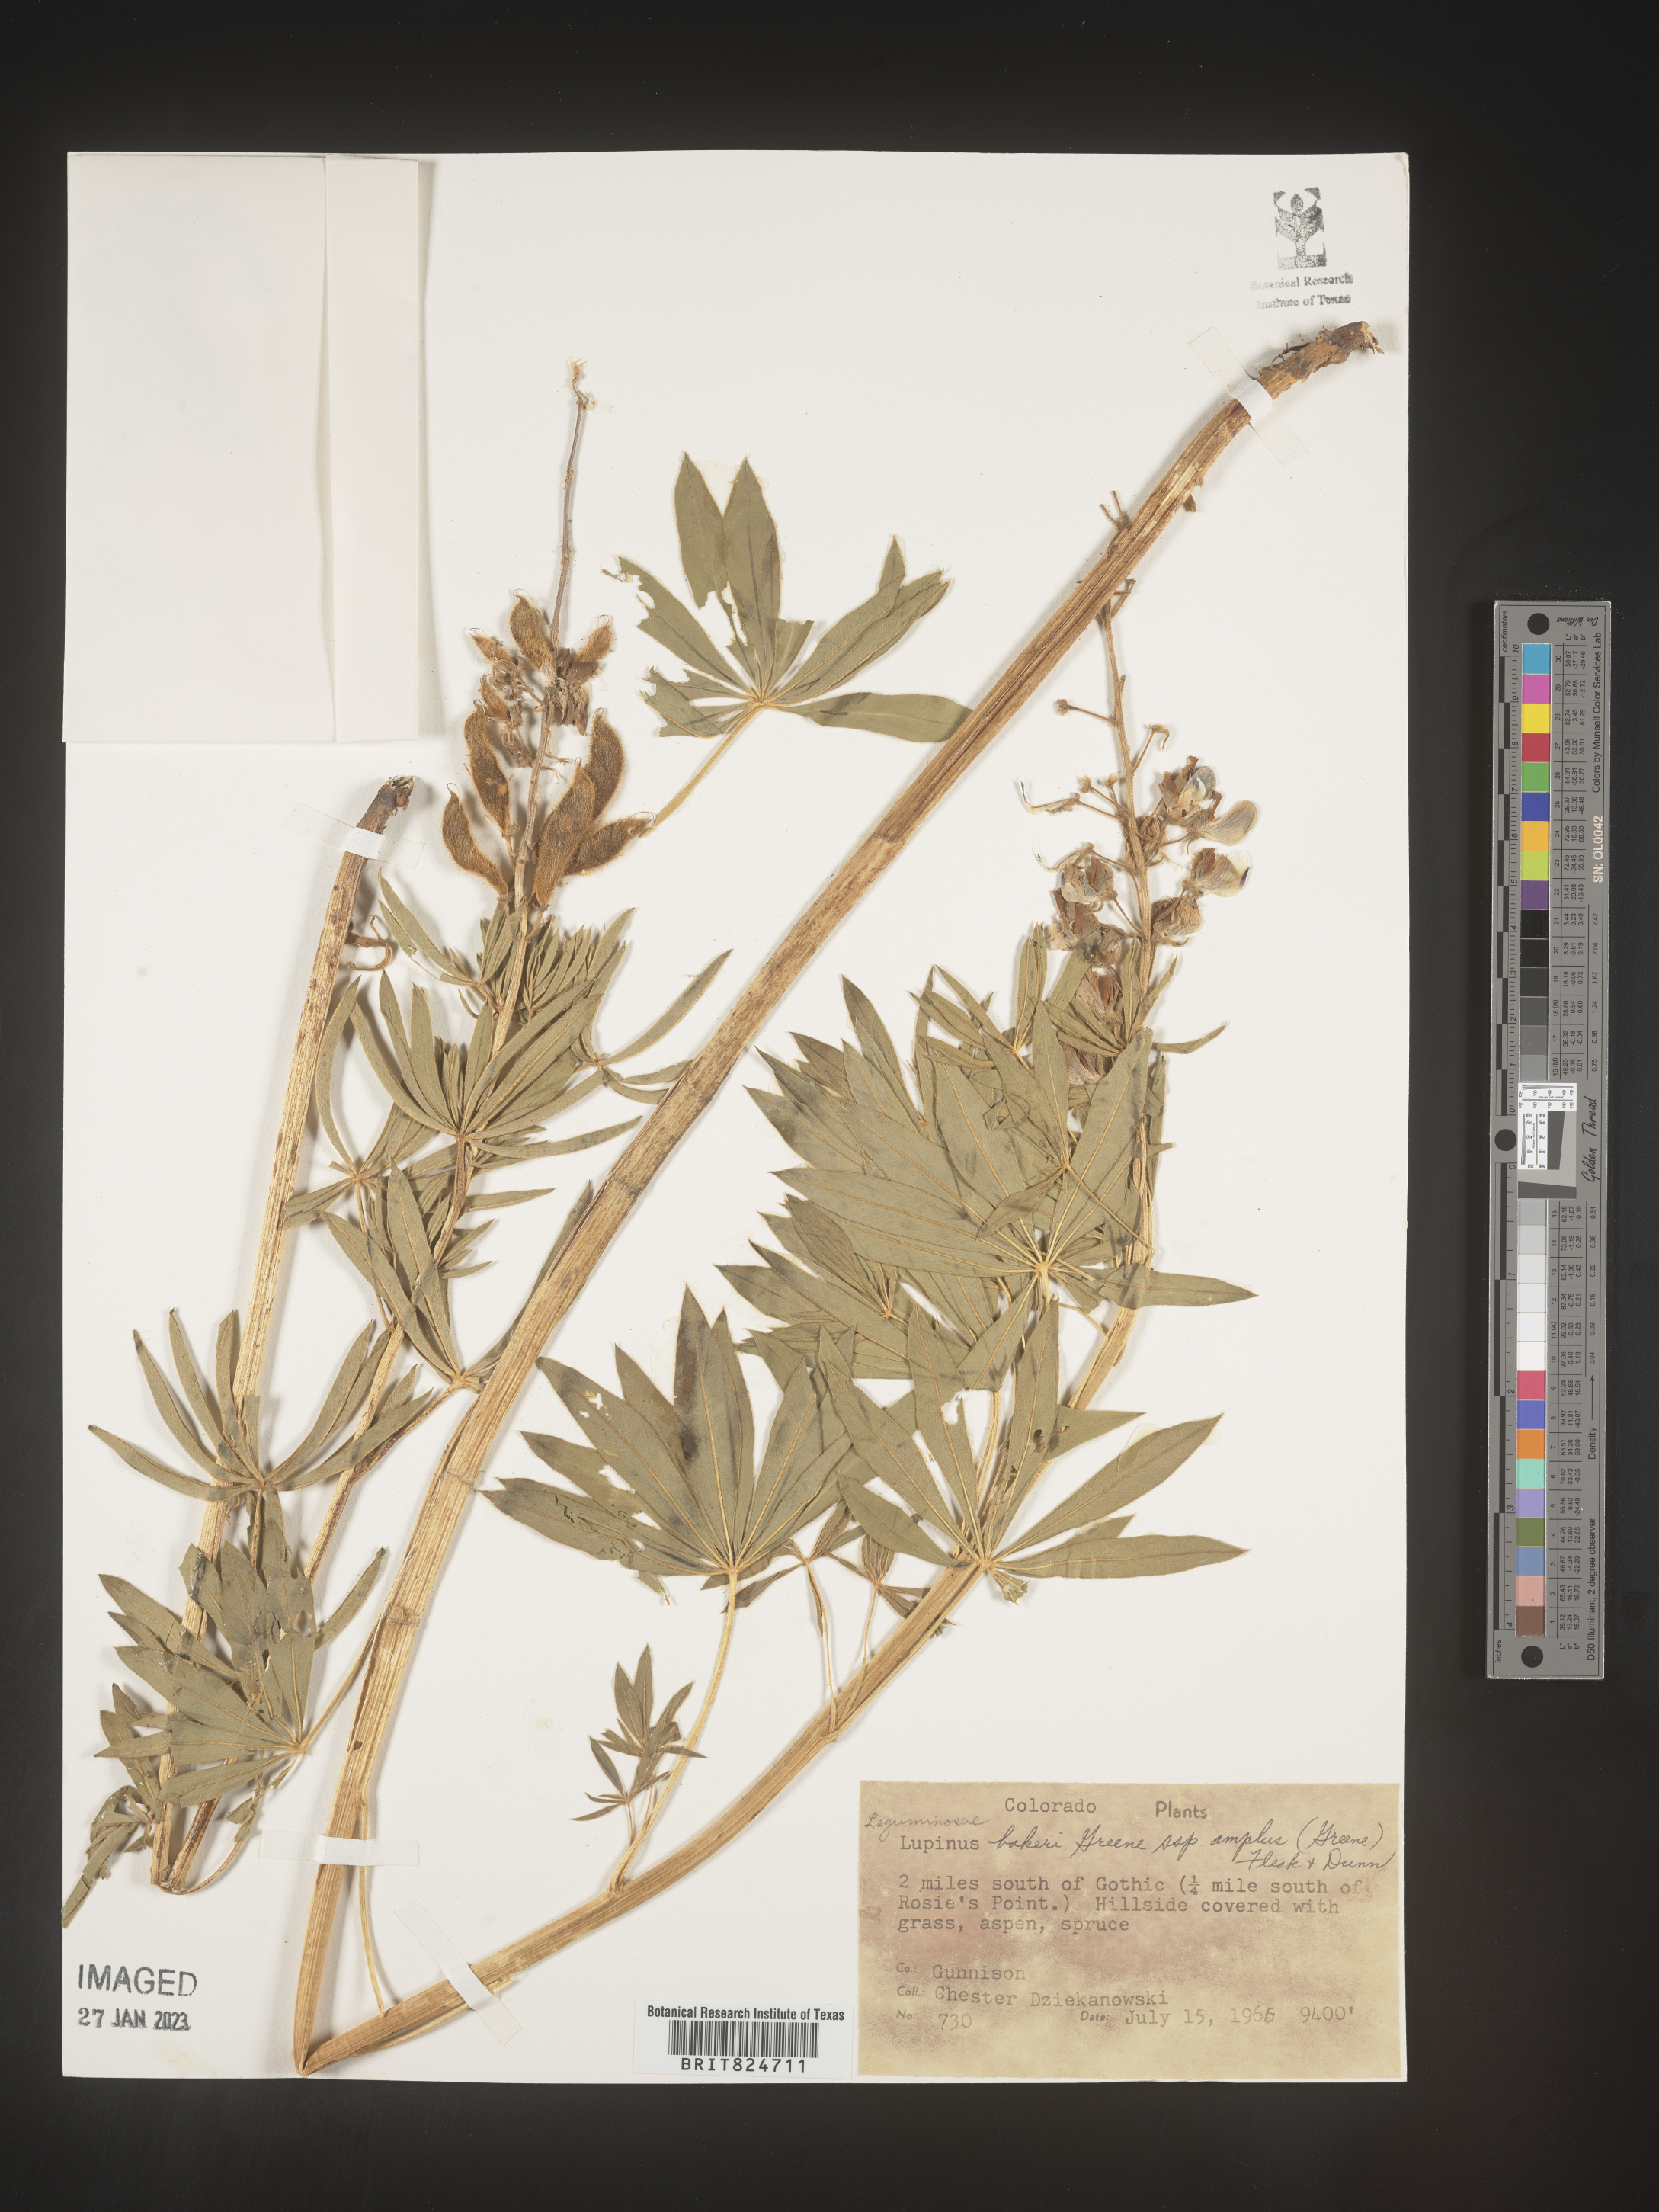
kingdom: Plantae
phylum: Tracheophyta
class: Magnoliopsida
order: Fabales
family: Fabaceae
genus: Lupinus
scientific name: Lupinus
